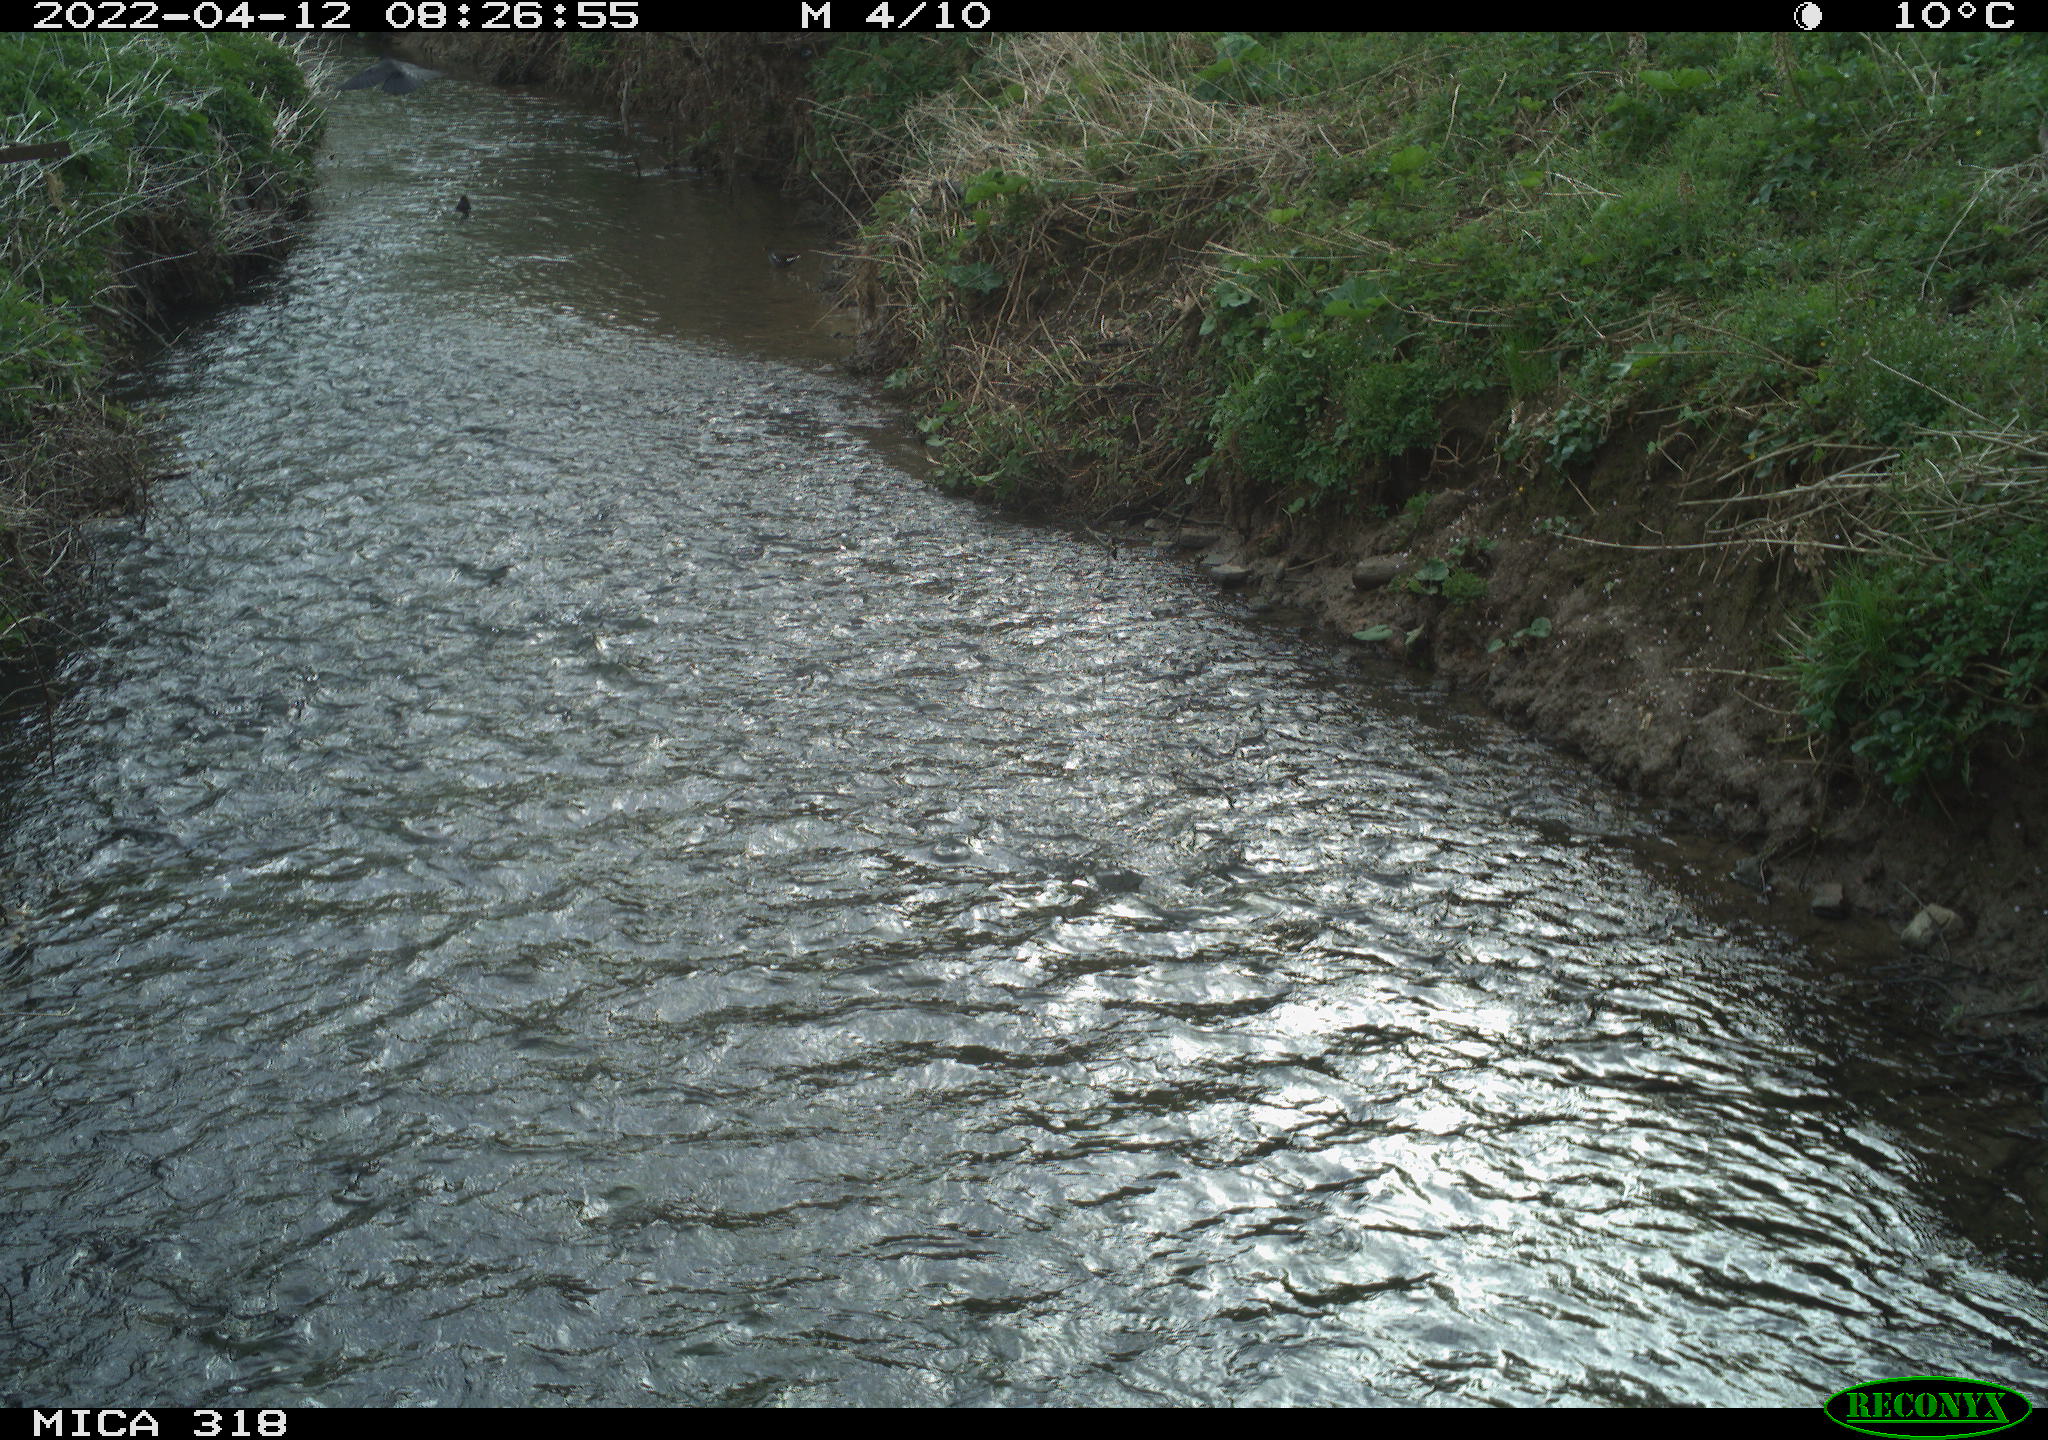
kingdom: Animalia
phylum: Chordata
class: Aves
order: Passeriformes
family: Corvidae
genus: Corvus
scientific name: Corvus corone
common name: Carrion crow
